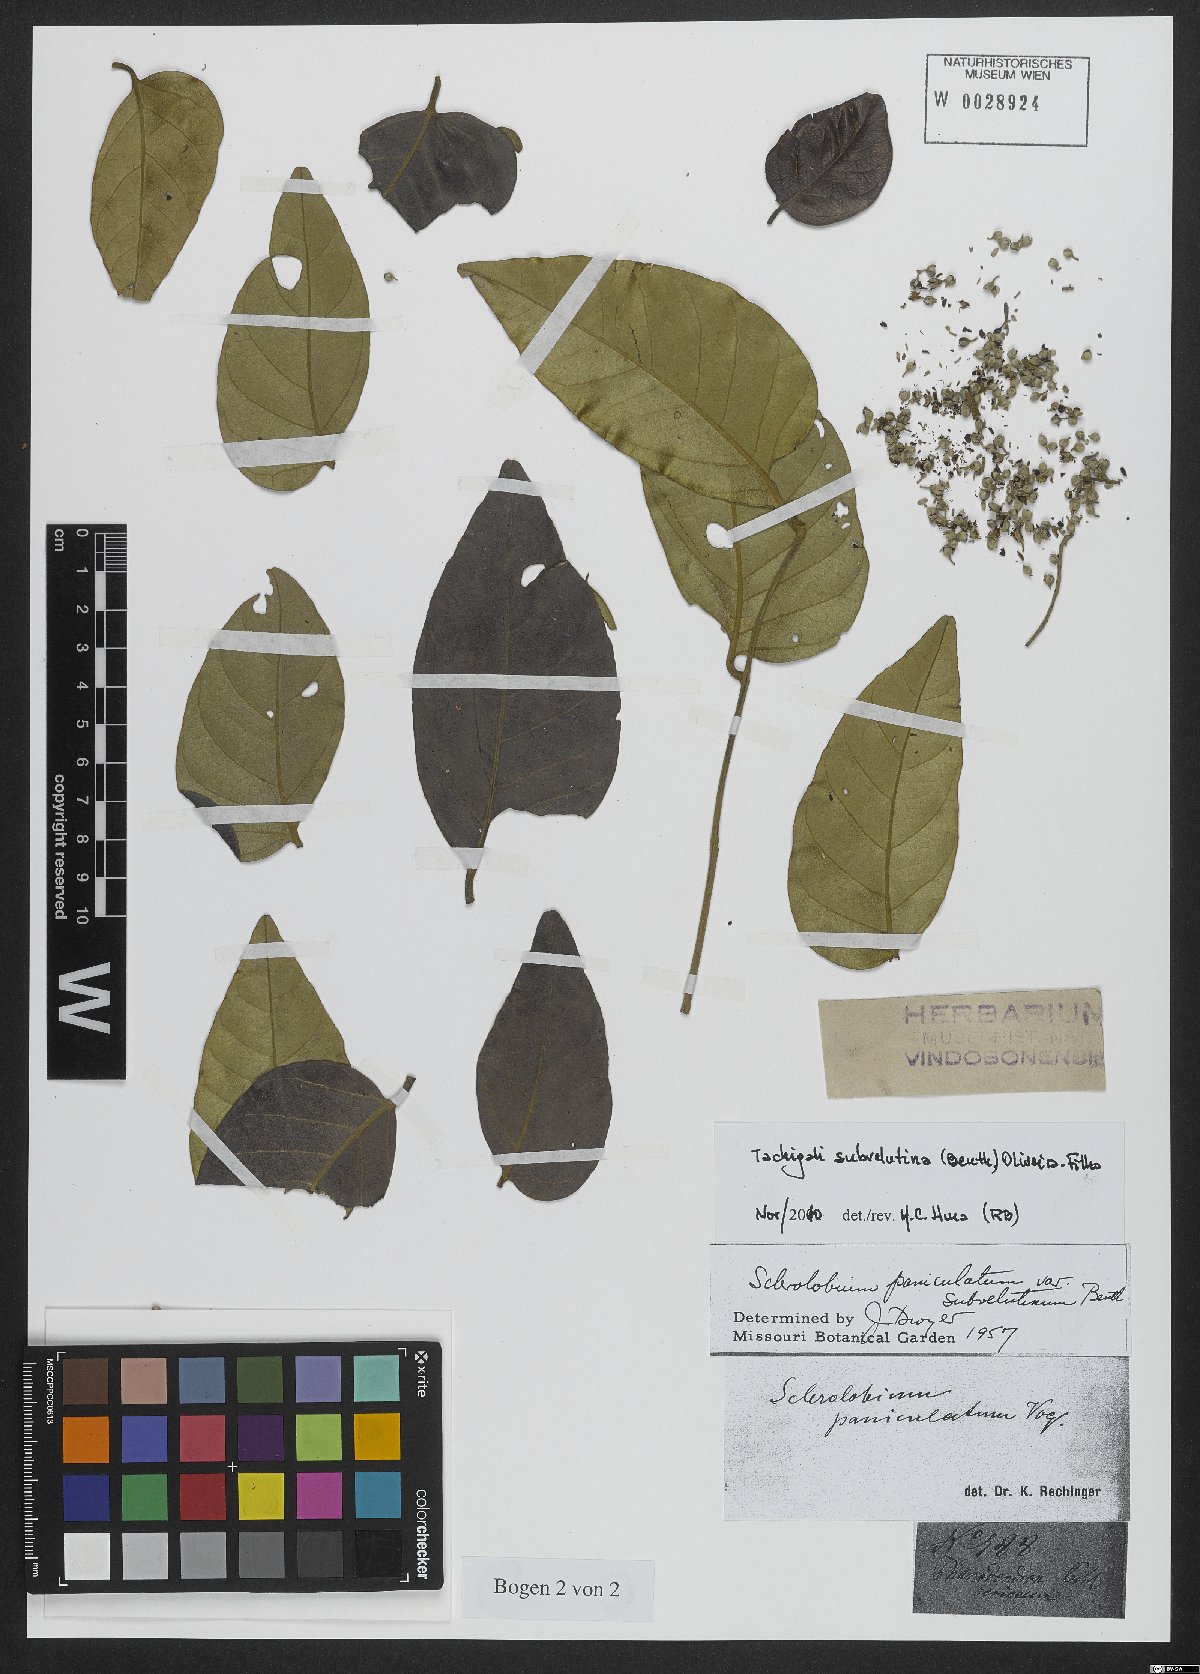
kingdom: Plantae
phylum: Tracheophyta
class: Magnoliopsida
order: Fabales
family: Fabaceae
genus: Tachigali
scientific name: Tachigali subvelutina
